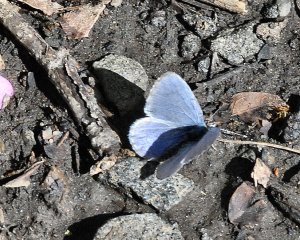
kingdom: Animalia
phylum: Arthropoda
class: Insecta
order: Lepidoptera
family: Lycaenidae
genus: Celastrina
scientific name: Celastrina ladon
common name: Echo Azure
